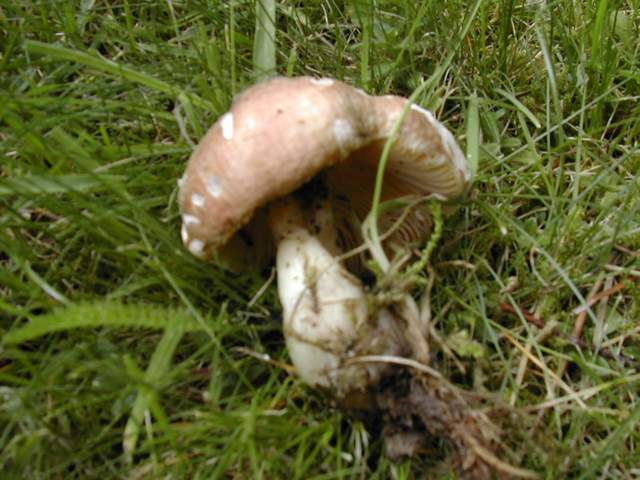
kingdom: Fungi
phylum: Basidiomycota
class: Agaricomycetes
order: Russulales
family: Russulaceae
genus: Russula
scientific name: Russula cessans
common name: fyrre-skørhat
